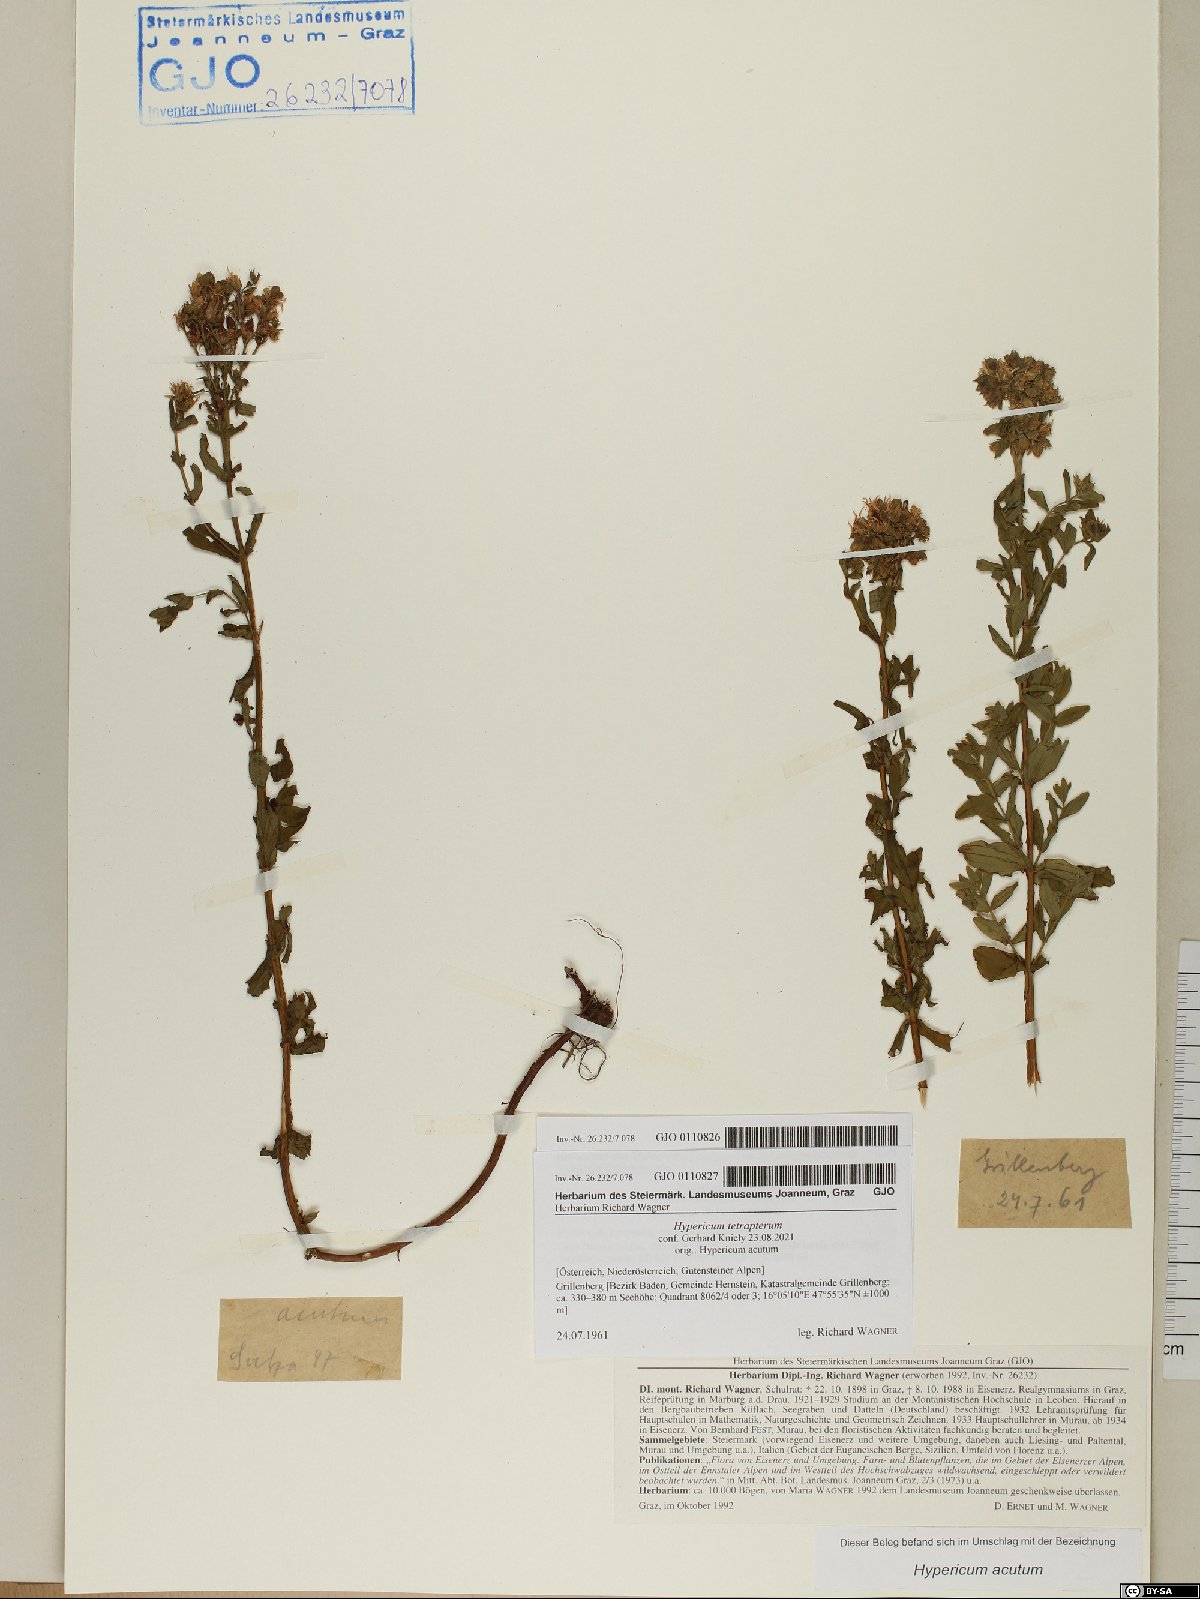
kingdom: Plantae
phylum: Tracheophyta
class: Magnoliopsida
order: Malpighiales
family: Hypericaceae
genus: Hypericum
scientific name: Hypericum tetrapterum
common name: Square-stalked st. john's-wort
